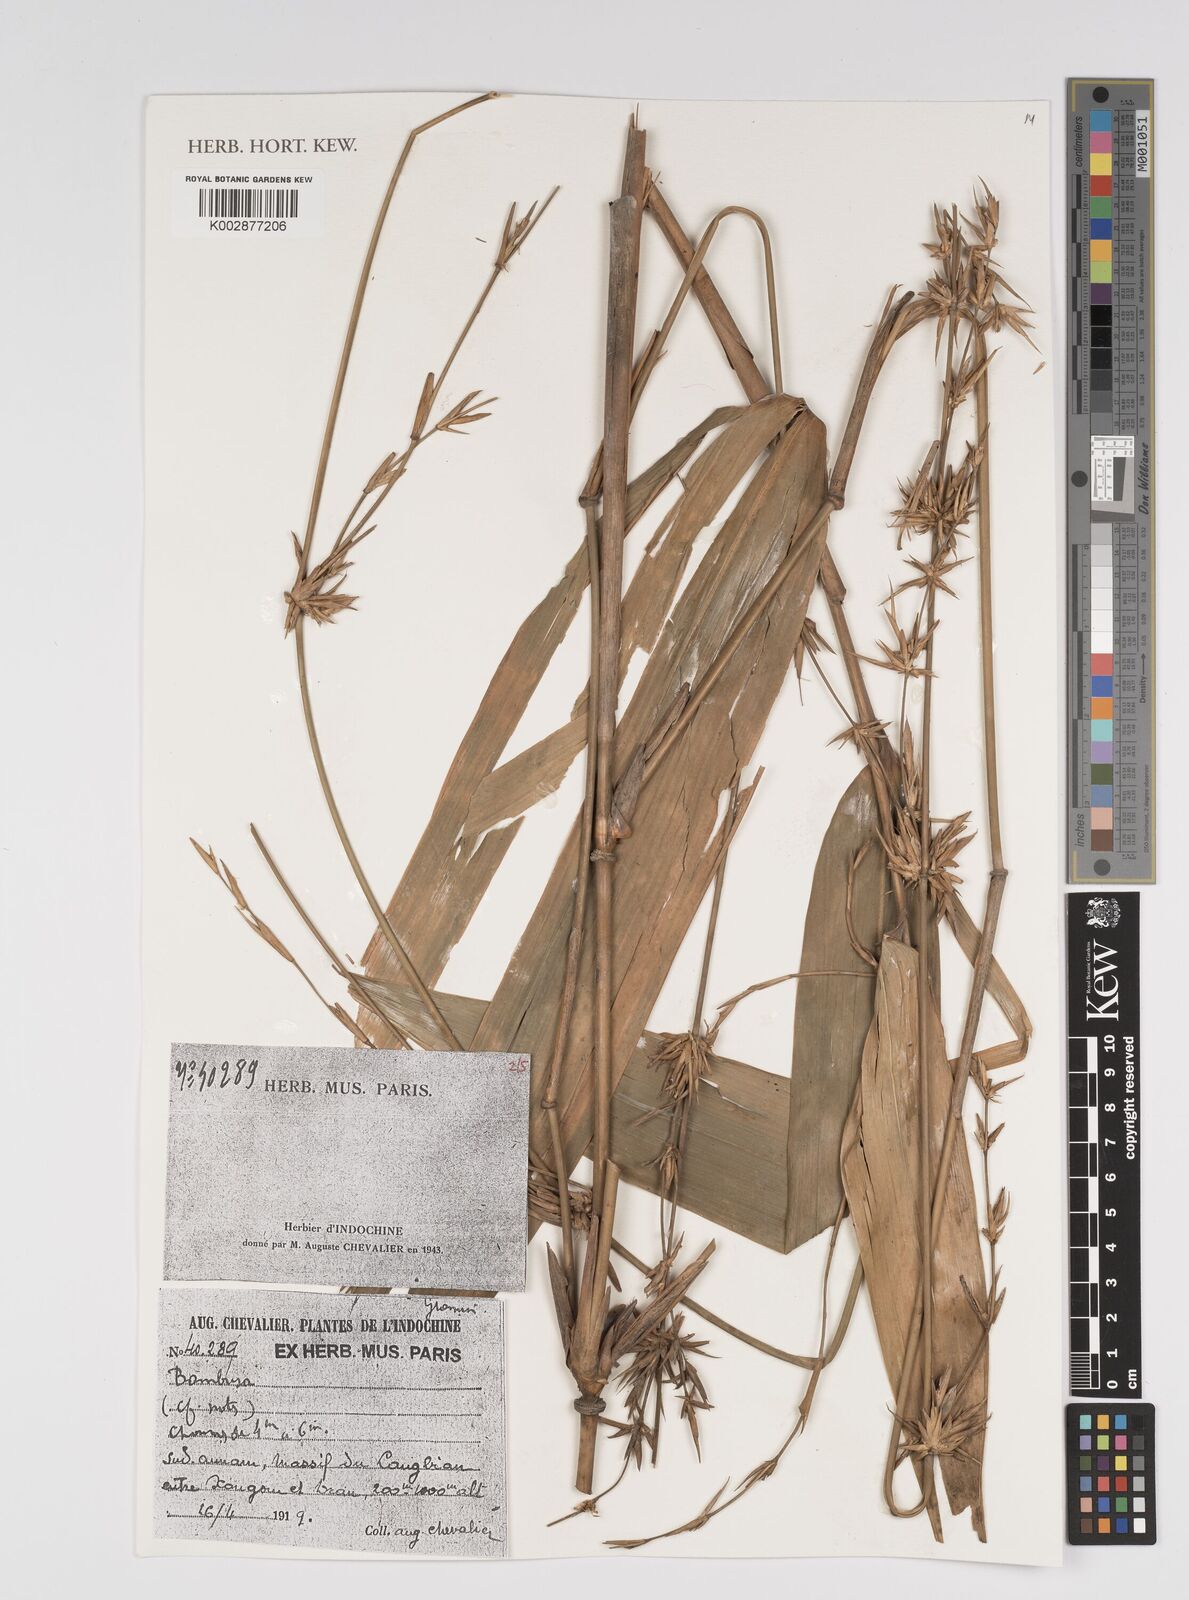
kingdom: Plantae
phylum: Tracheophyta
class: Liliopsida
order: Poales
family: Poaceae
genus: Bambusa
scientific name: Bambusa
